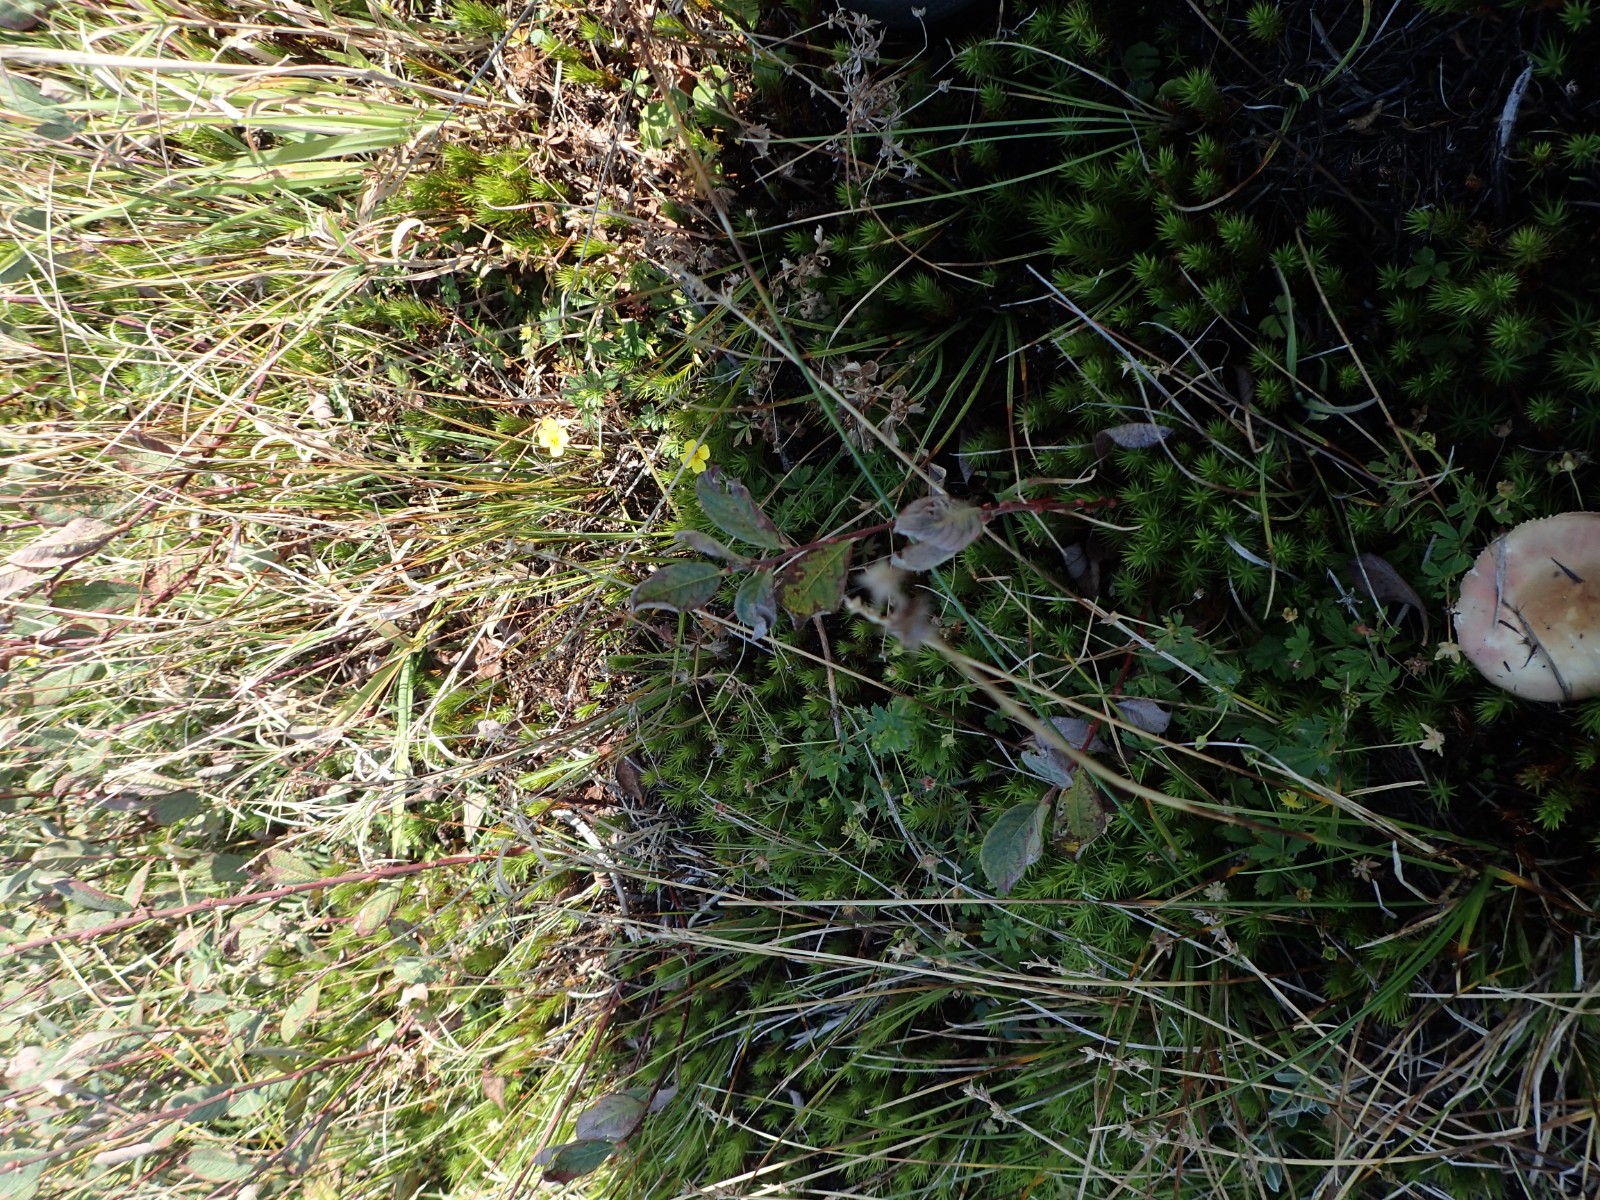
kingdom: Fungi
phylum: Basidiomycota
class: Agaricomycetes
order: Russulales
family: Russulaceae
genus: Russula
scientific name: Russula subrubens
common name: pile-skørhat
